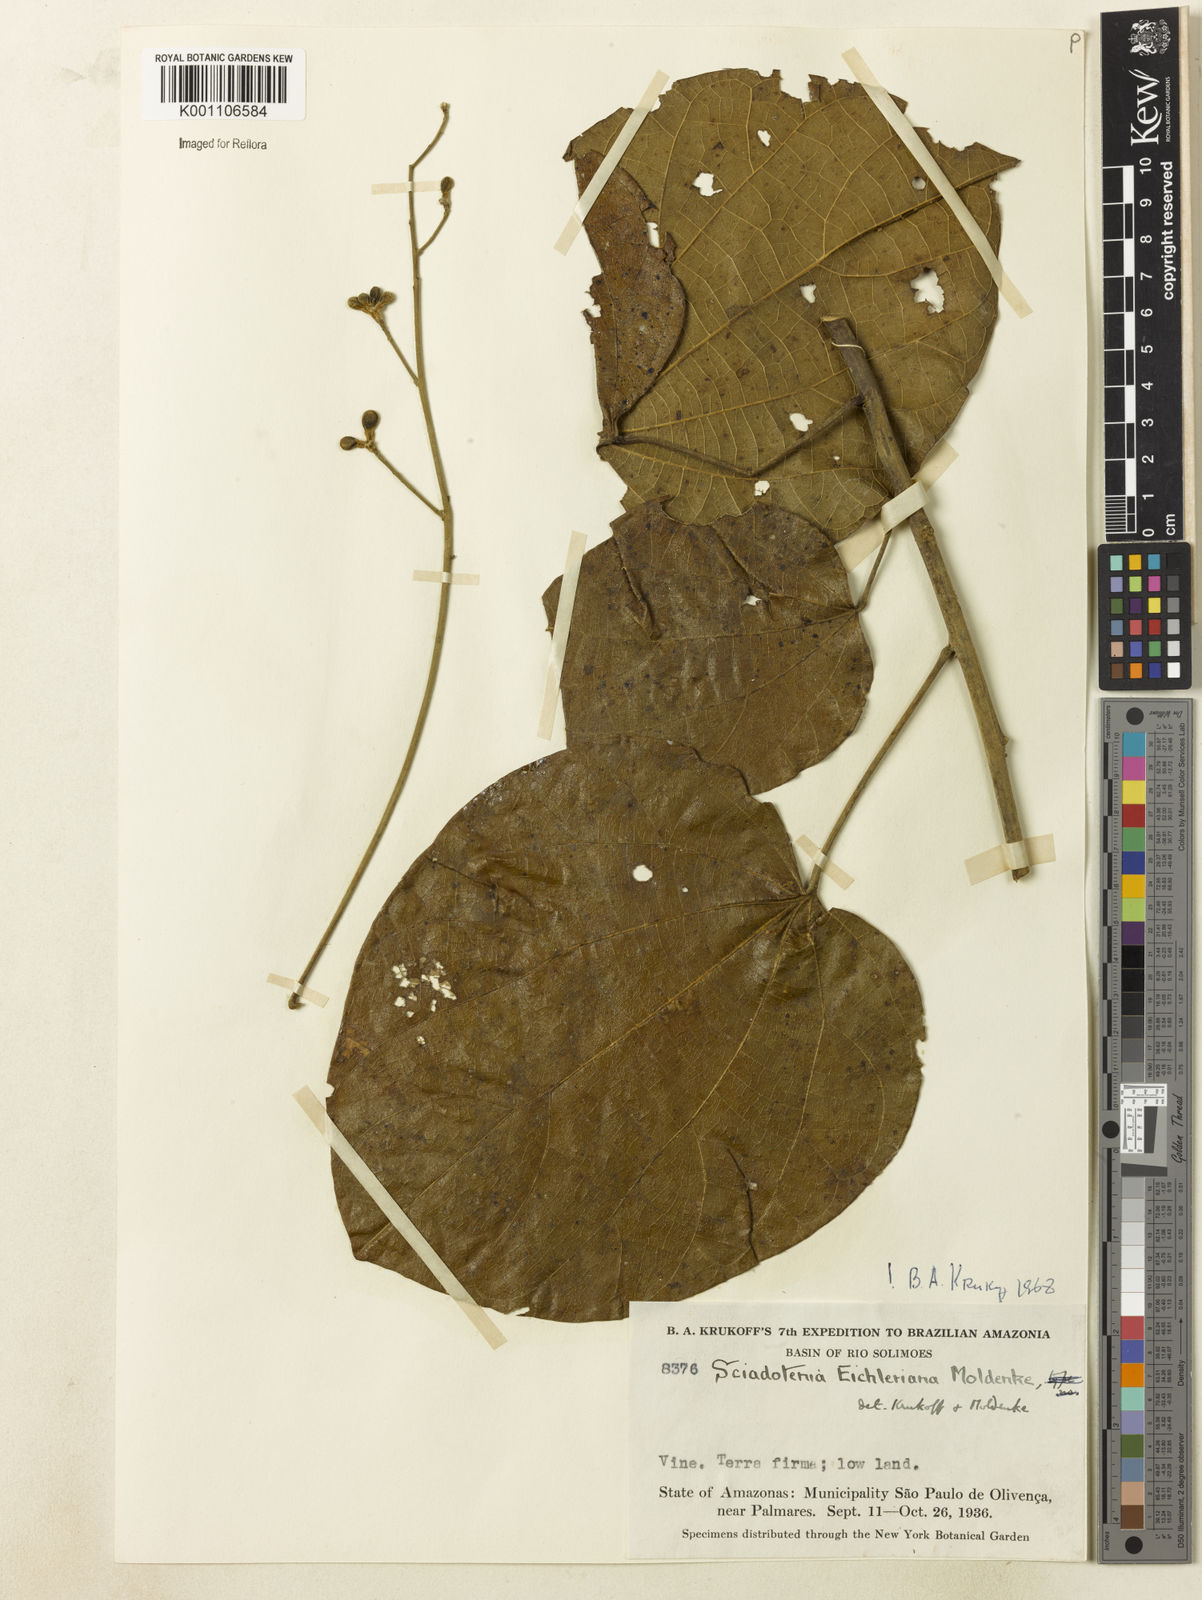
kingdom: Plantae
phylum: Tracheophyta
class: Magnoliopsida
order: Ranunculales
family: Menispermaceae
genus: Sciadotenia
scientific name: Sciadotenia eichleriana
